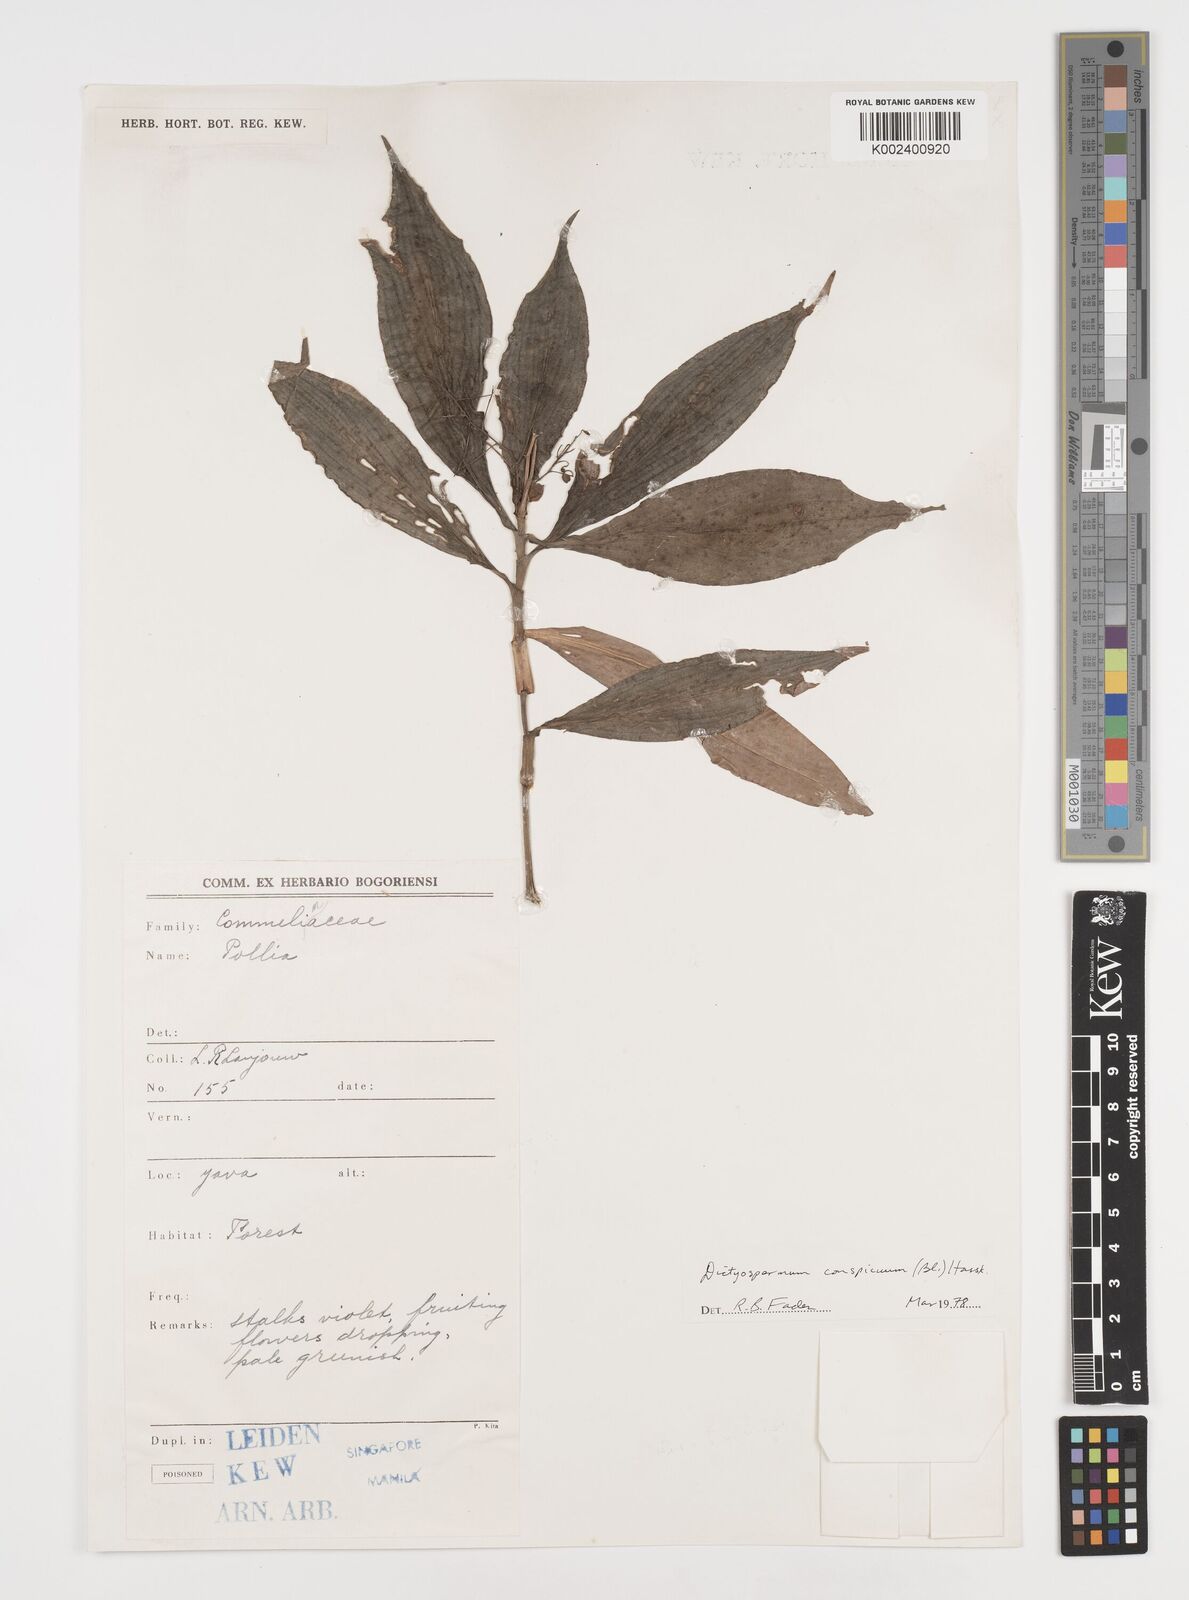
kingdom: Plantae
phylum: Tracheophyta
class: Liliopsida
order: Commelinales
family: Commelinaceae
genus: Dictyospermum
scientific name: Dictyospermum conspicuum
